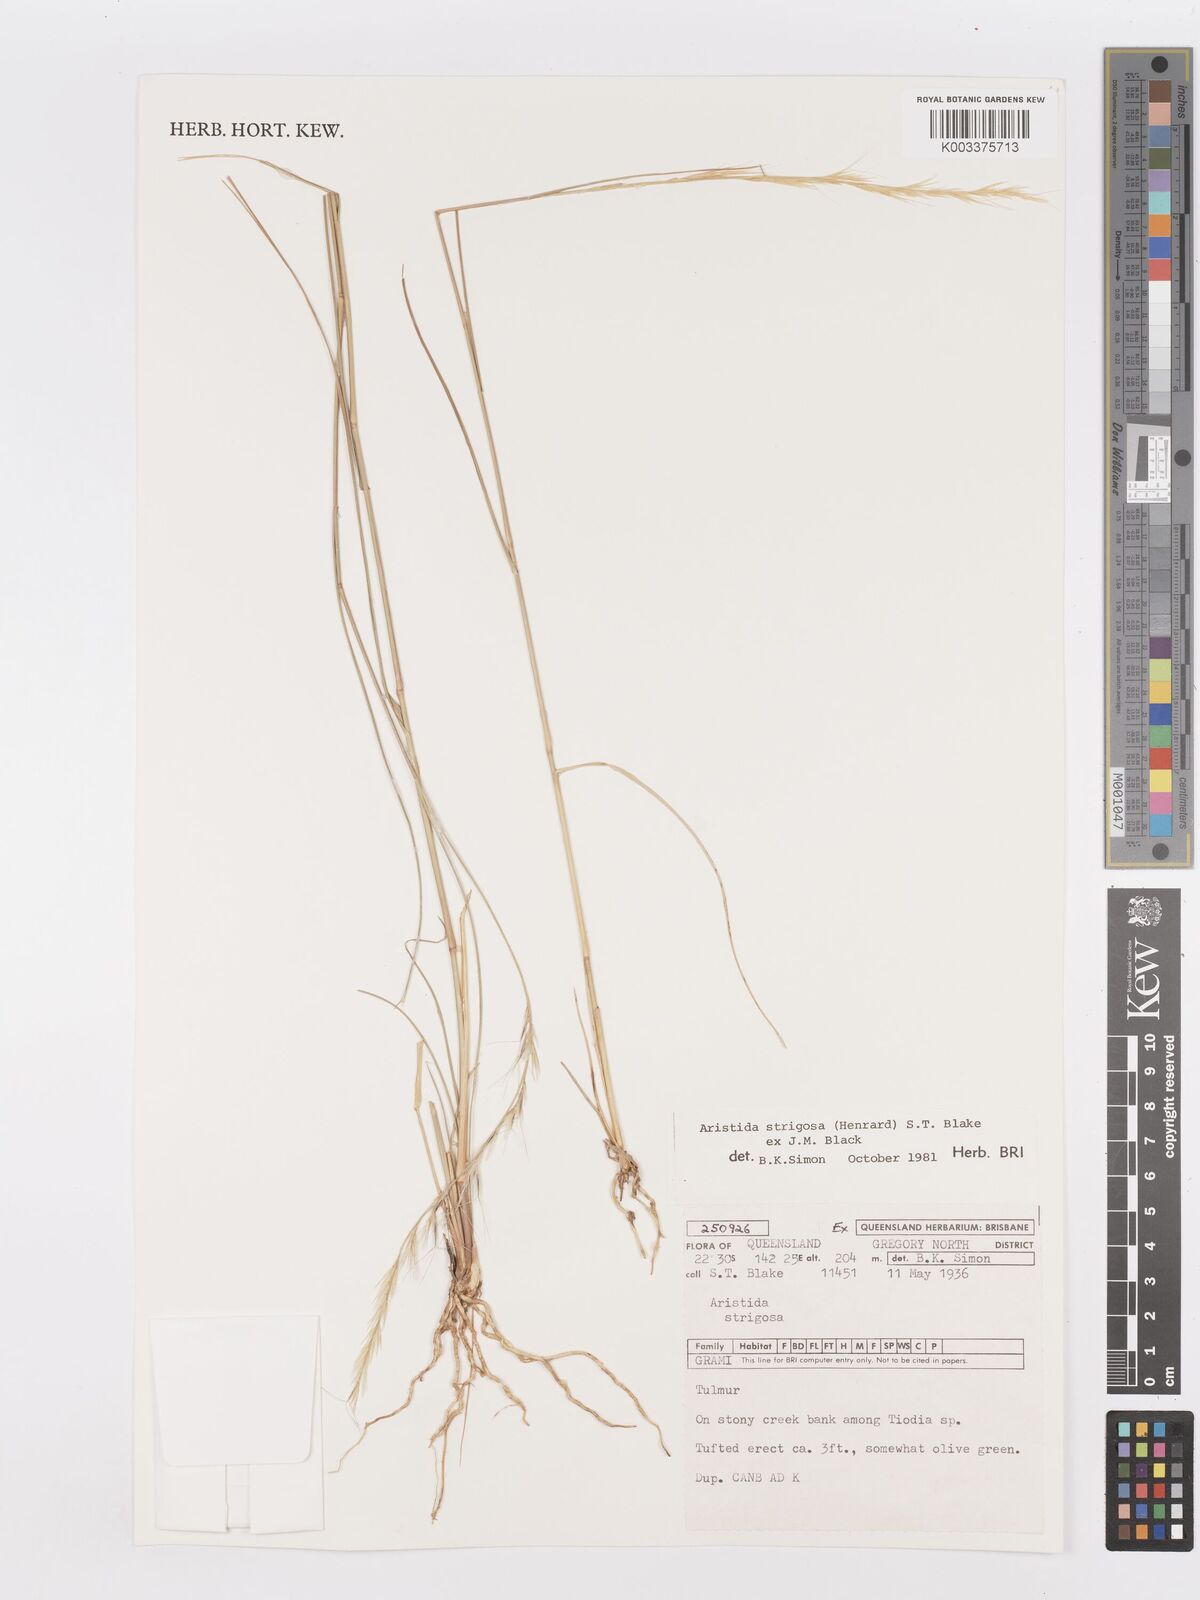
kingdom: Plantae
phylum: Tracheophyta
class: Liliopsida
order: Poales
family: Poaceae
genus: Aristida
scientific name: Aristida strigosa
